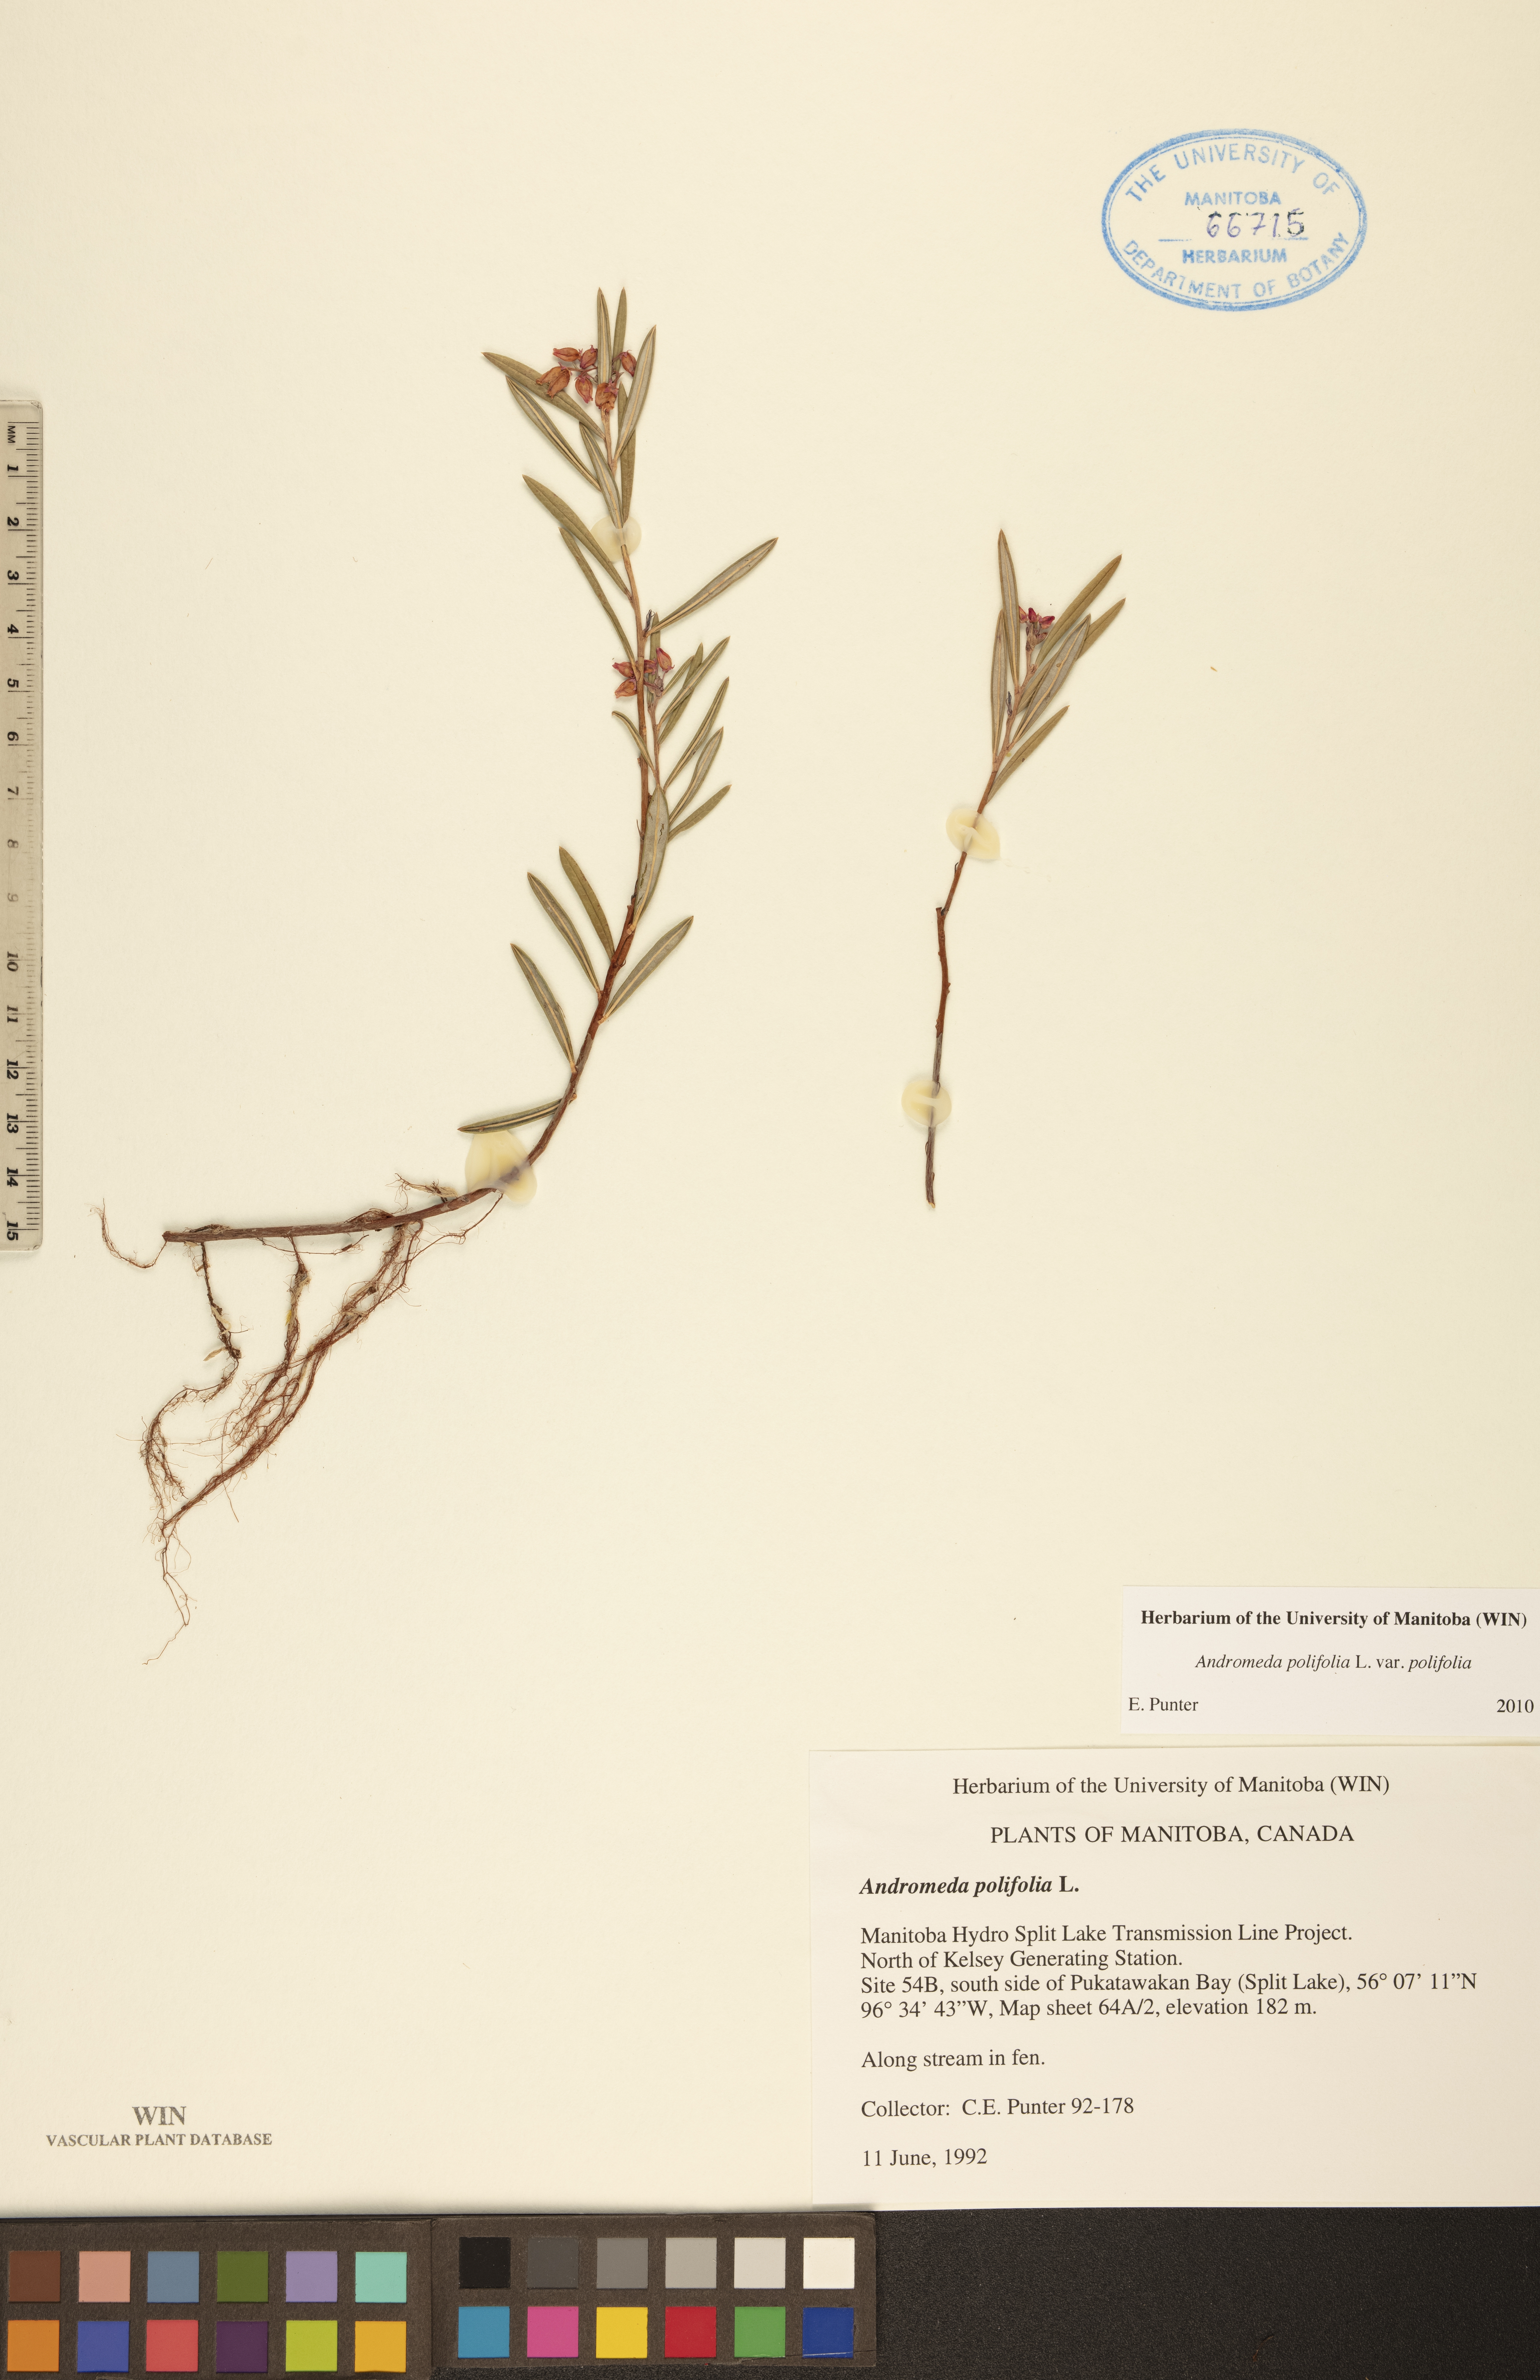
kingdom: Plantae
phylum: Tracheophyta
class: Magnoliopsida
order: Ericales
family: Ericaceae
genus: Andromeda
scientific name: Andromeda polifolia
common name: Bog-rosemary
